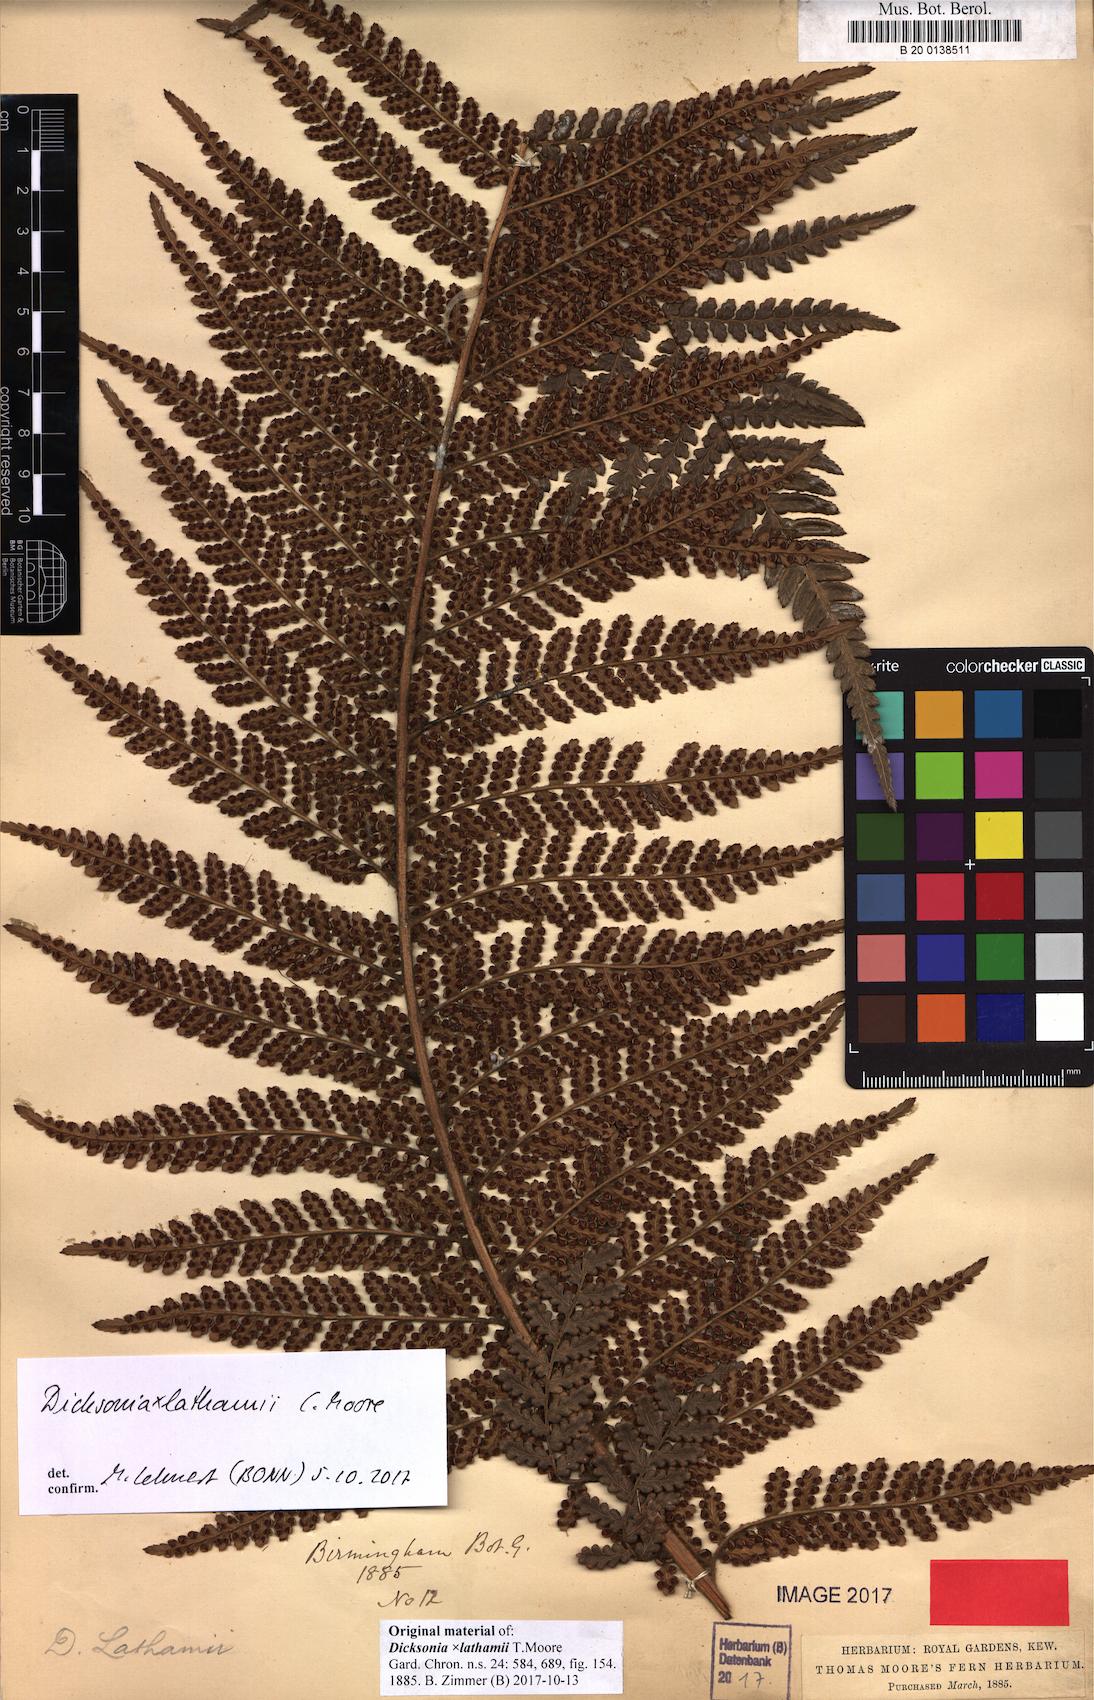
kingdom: Plantae
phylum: Tracheophyta
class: Polypodiopsida
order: Cyatheales
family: Dicksoniaceae
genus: Dicksonia
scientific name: Dicksonia lathamii
